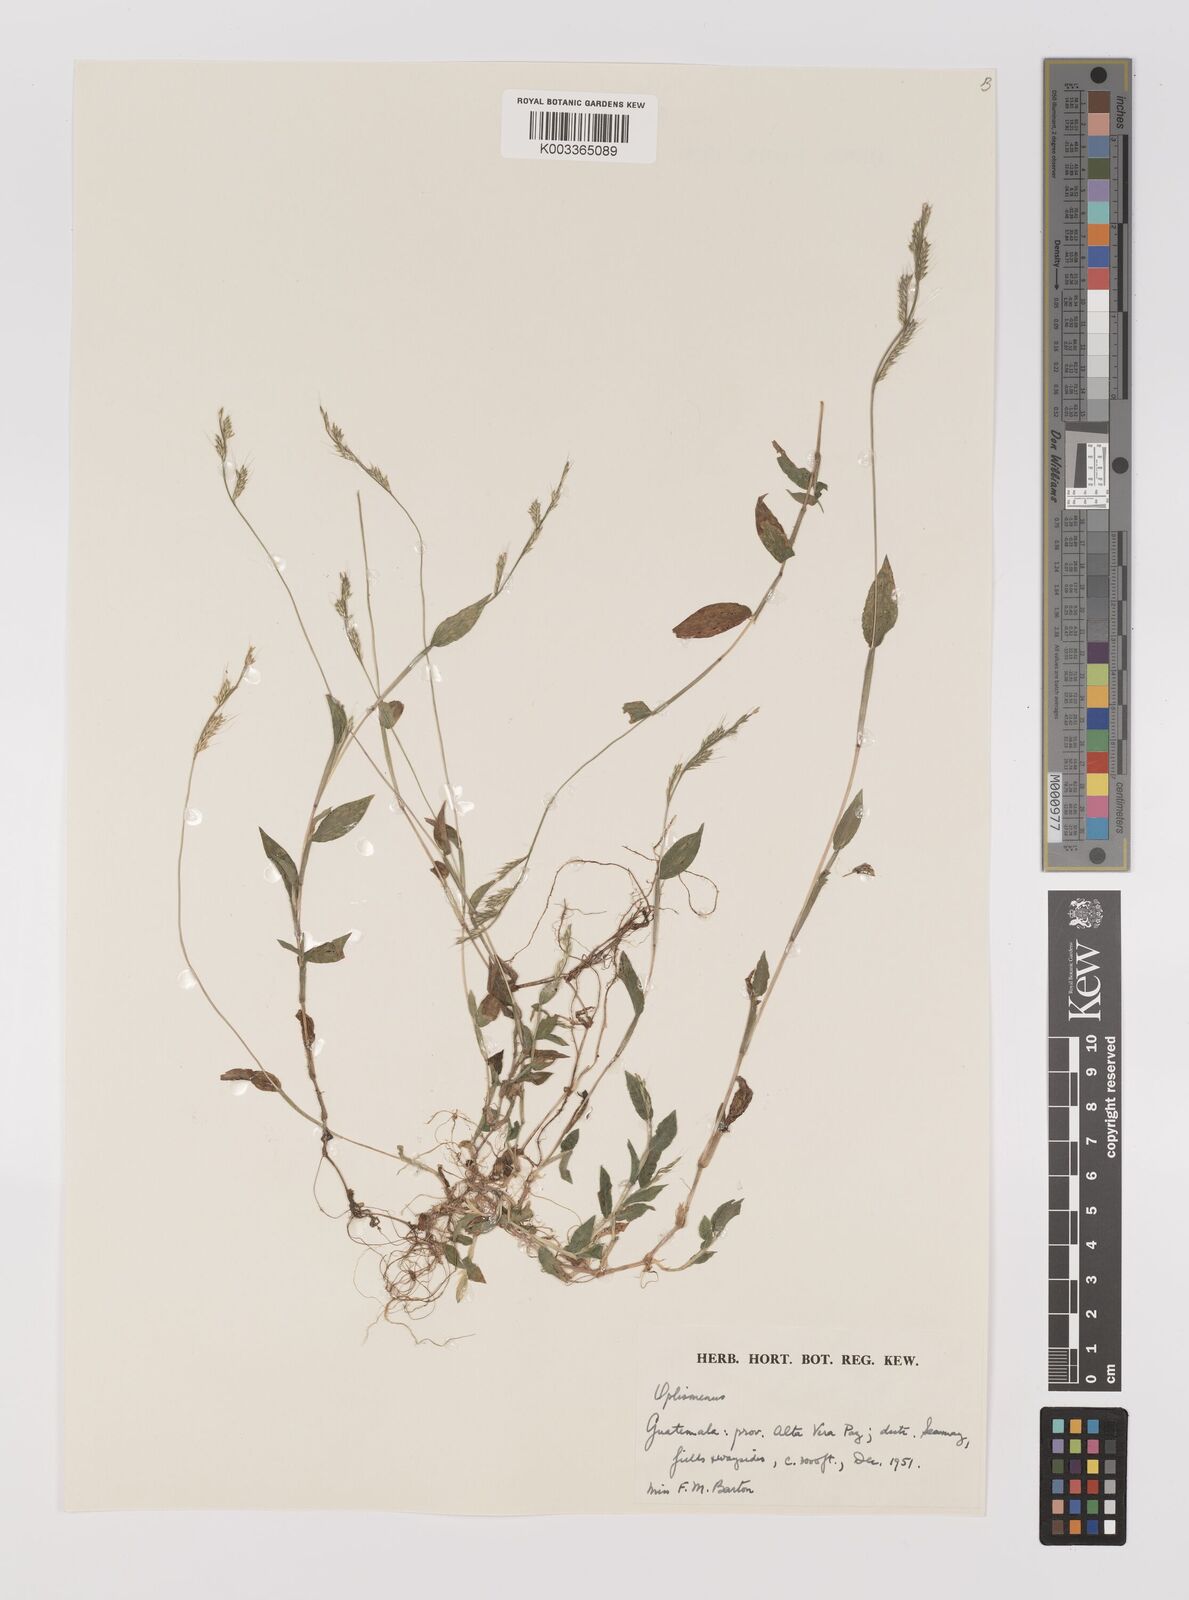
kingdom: Plantae
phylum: Tracheophyta
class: Liliopsida
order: Poales
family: Poaceae
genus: Oplismenus
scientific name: Oplismenus burmanni
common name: Burmann's basketgrass
